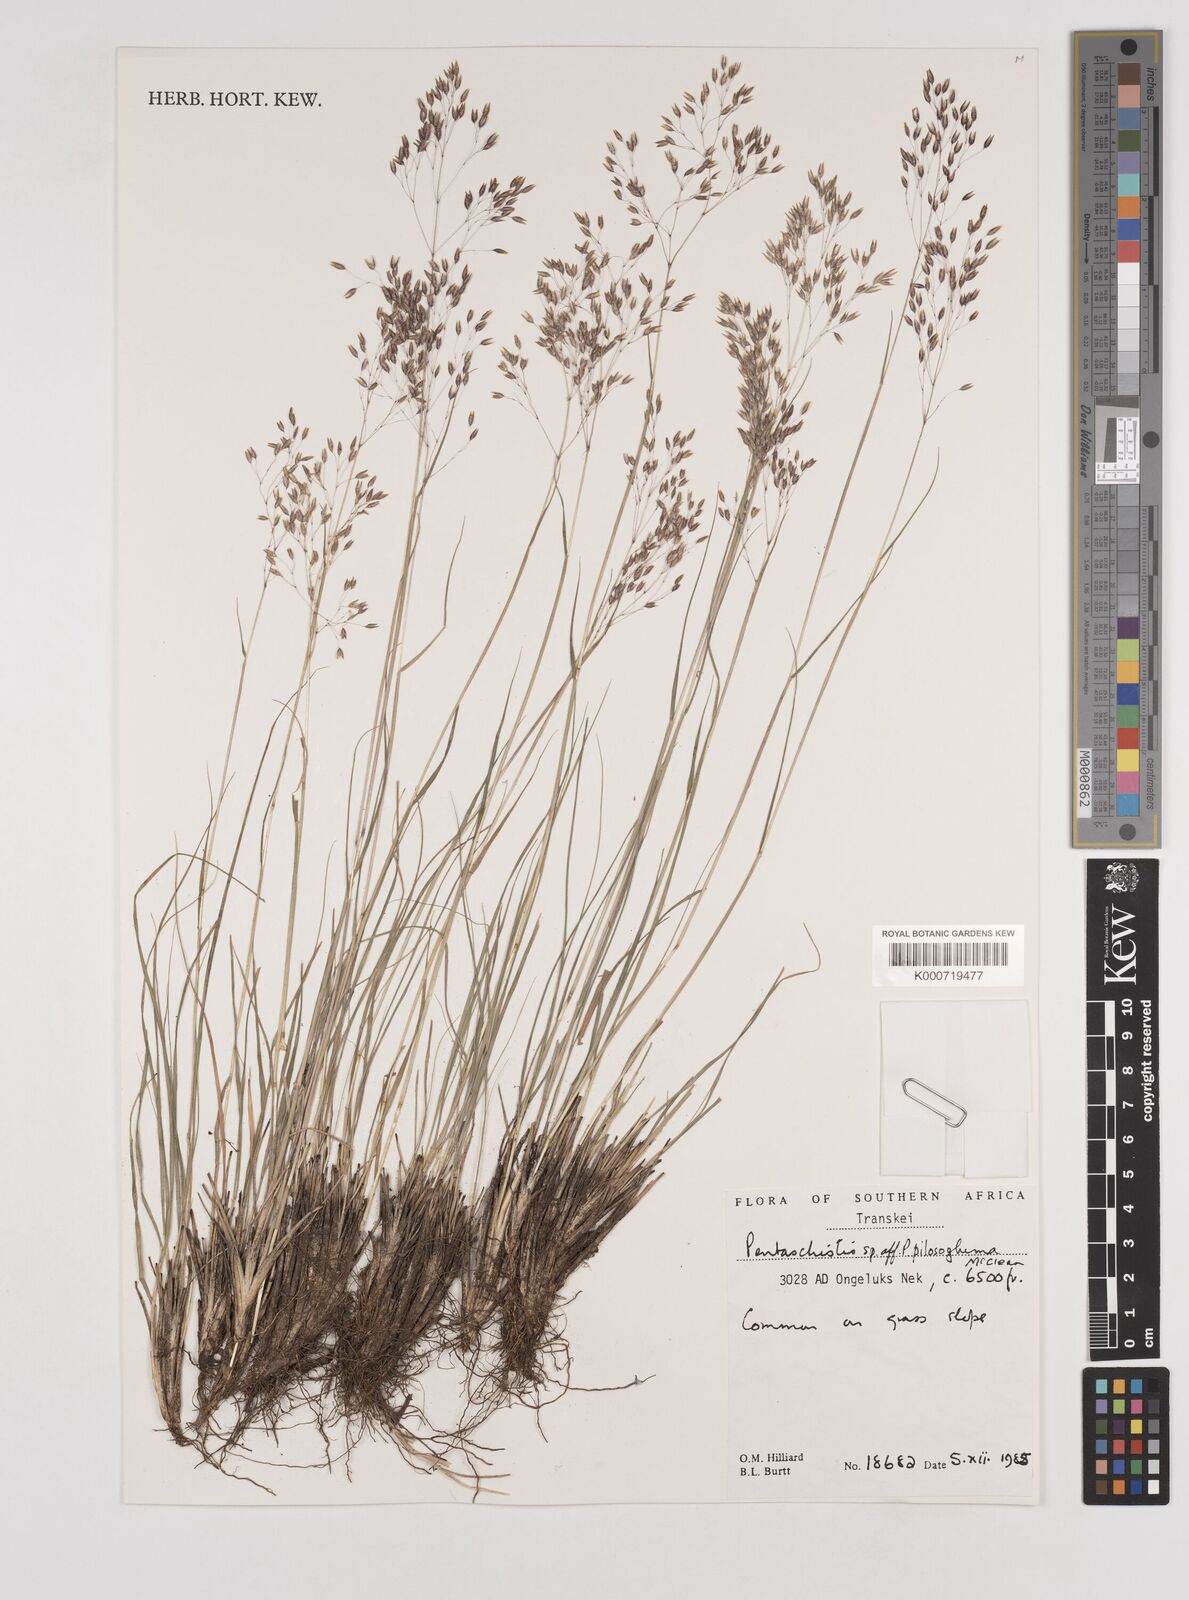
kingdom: Plantae
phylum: Tracheophyta
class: Liliopsida
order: Poales
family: Poaceae
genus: Pentameris
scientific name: Pentameris aurea
